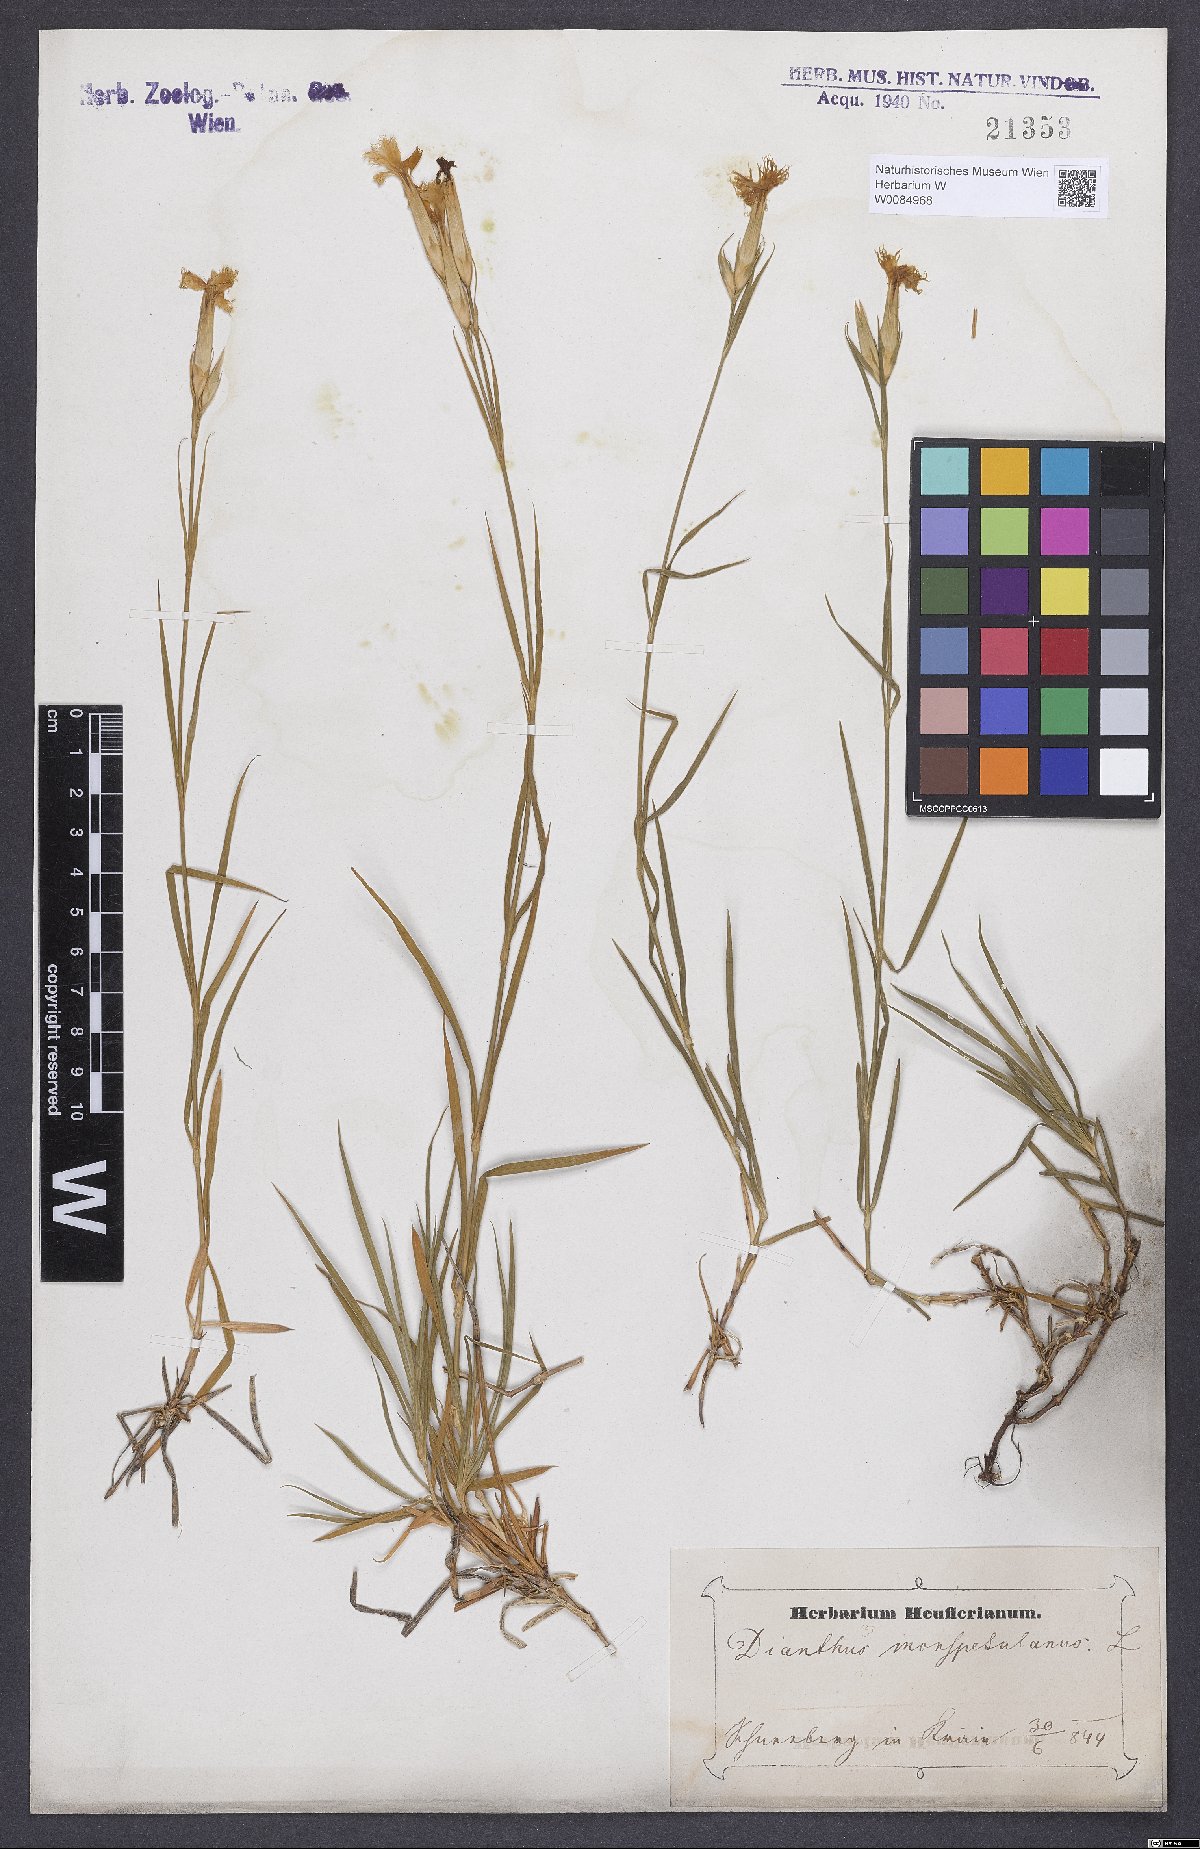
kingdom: Plantae
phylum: Tracheophyta
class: Magnoliopsida
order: Caryophyllales
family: Caryophyllaceae
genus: Dianthus
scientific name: Dianthus hyssopifolius
